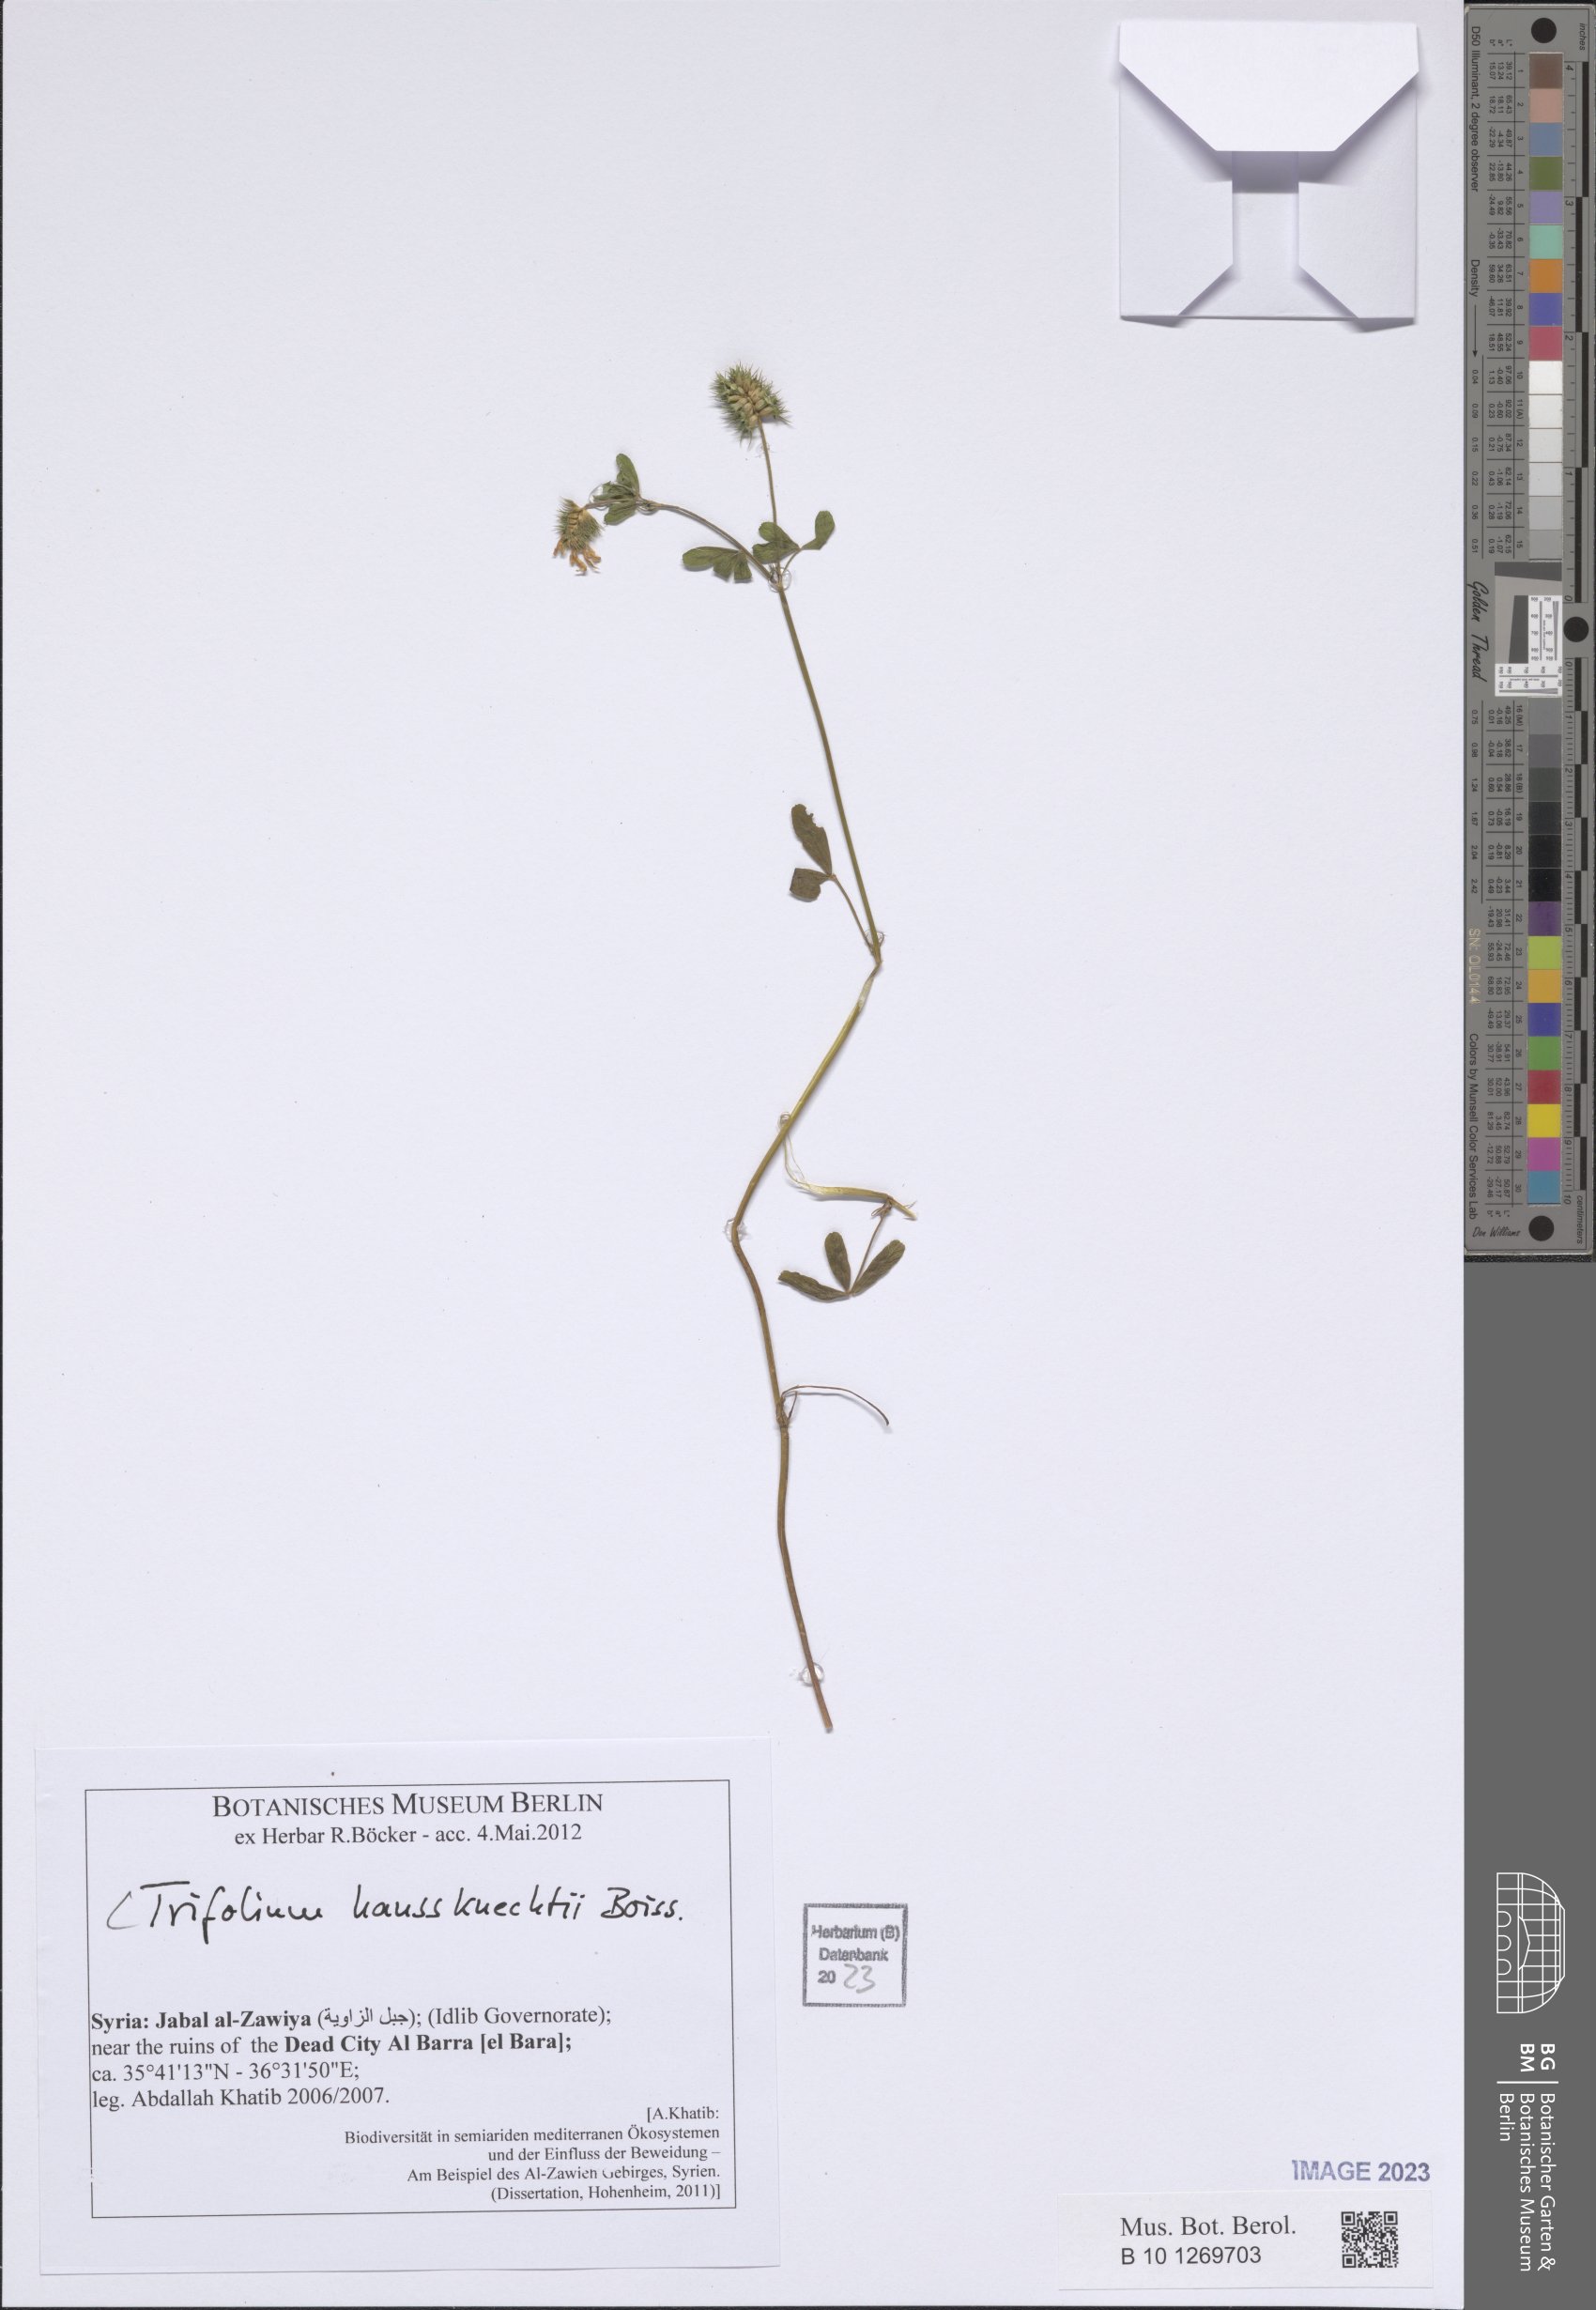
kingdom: Plantae
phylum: Tracheophyta
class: Magnoliopsida
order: Fabales
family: Fabaceae
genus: Trifolium
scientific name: Trifolium haussknechtii
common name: Haussknecht's clover
